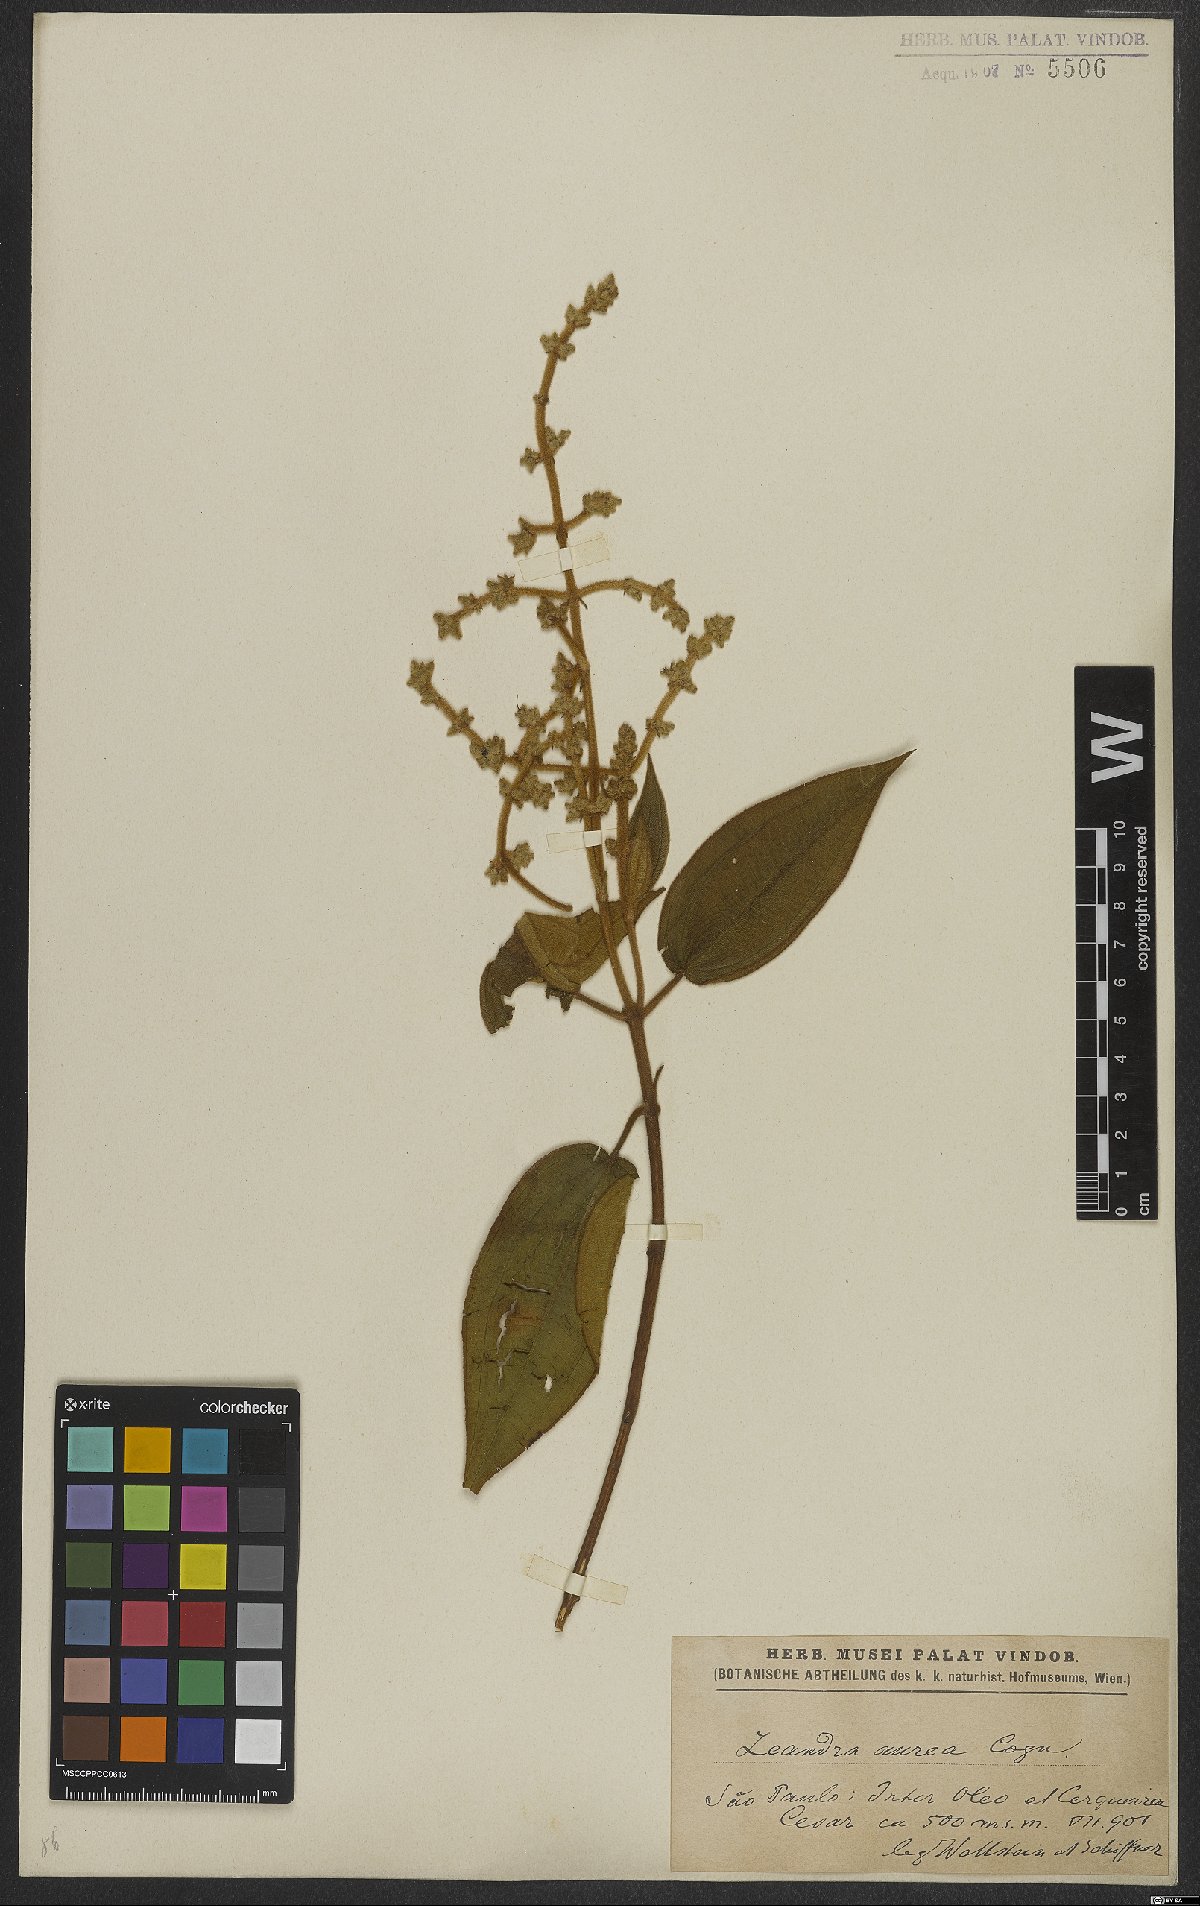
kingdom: Plantae
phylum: Tracheophyta
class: Magnoliopsida
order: Myrtales
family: Melastomataceae
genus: Miconia
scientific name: Miconia auricoma
